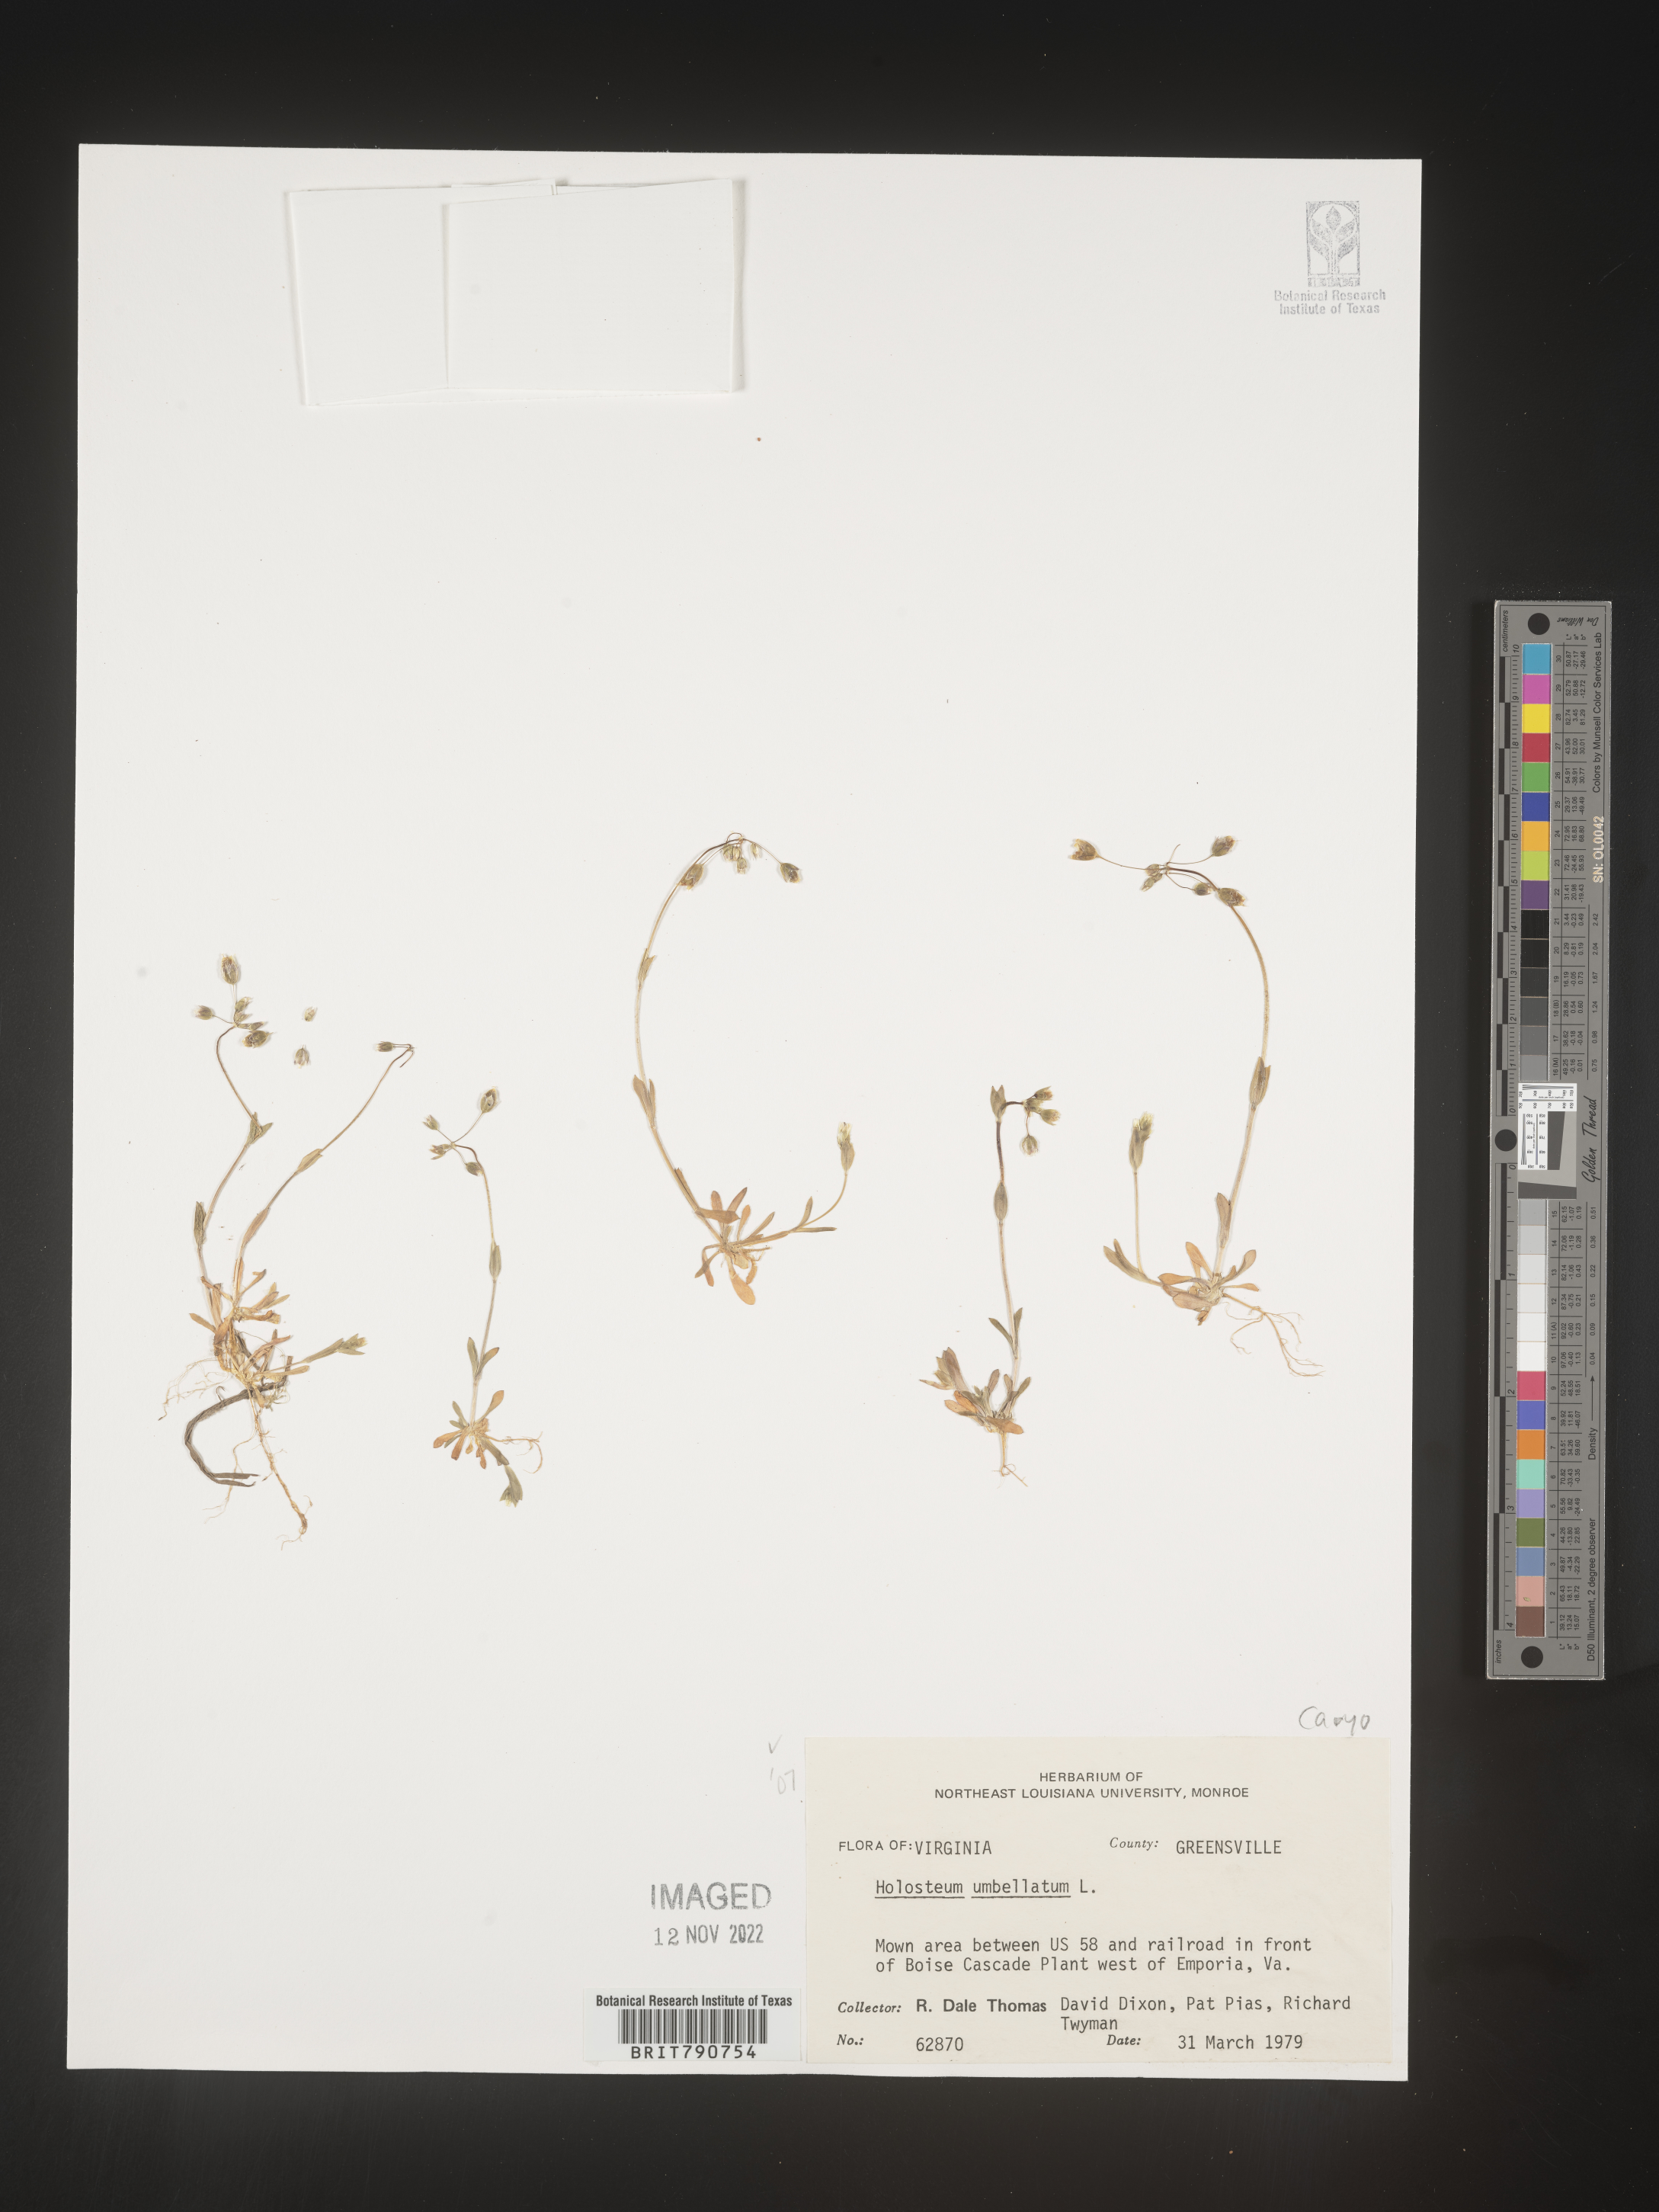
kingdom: Plantae
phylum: Tracheophyta
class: Magnoliopsida
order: Caryophyllales
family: Caryophyllaceae
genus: Holosteum
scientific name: Holosteum
